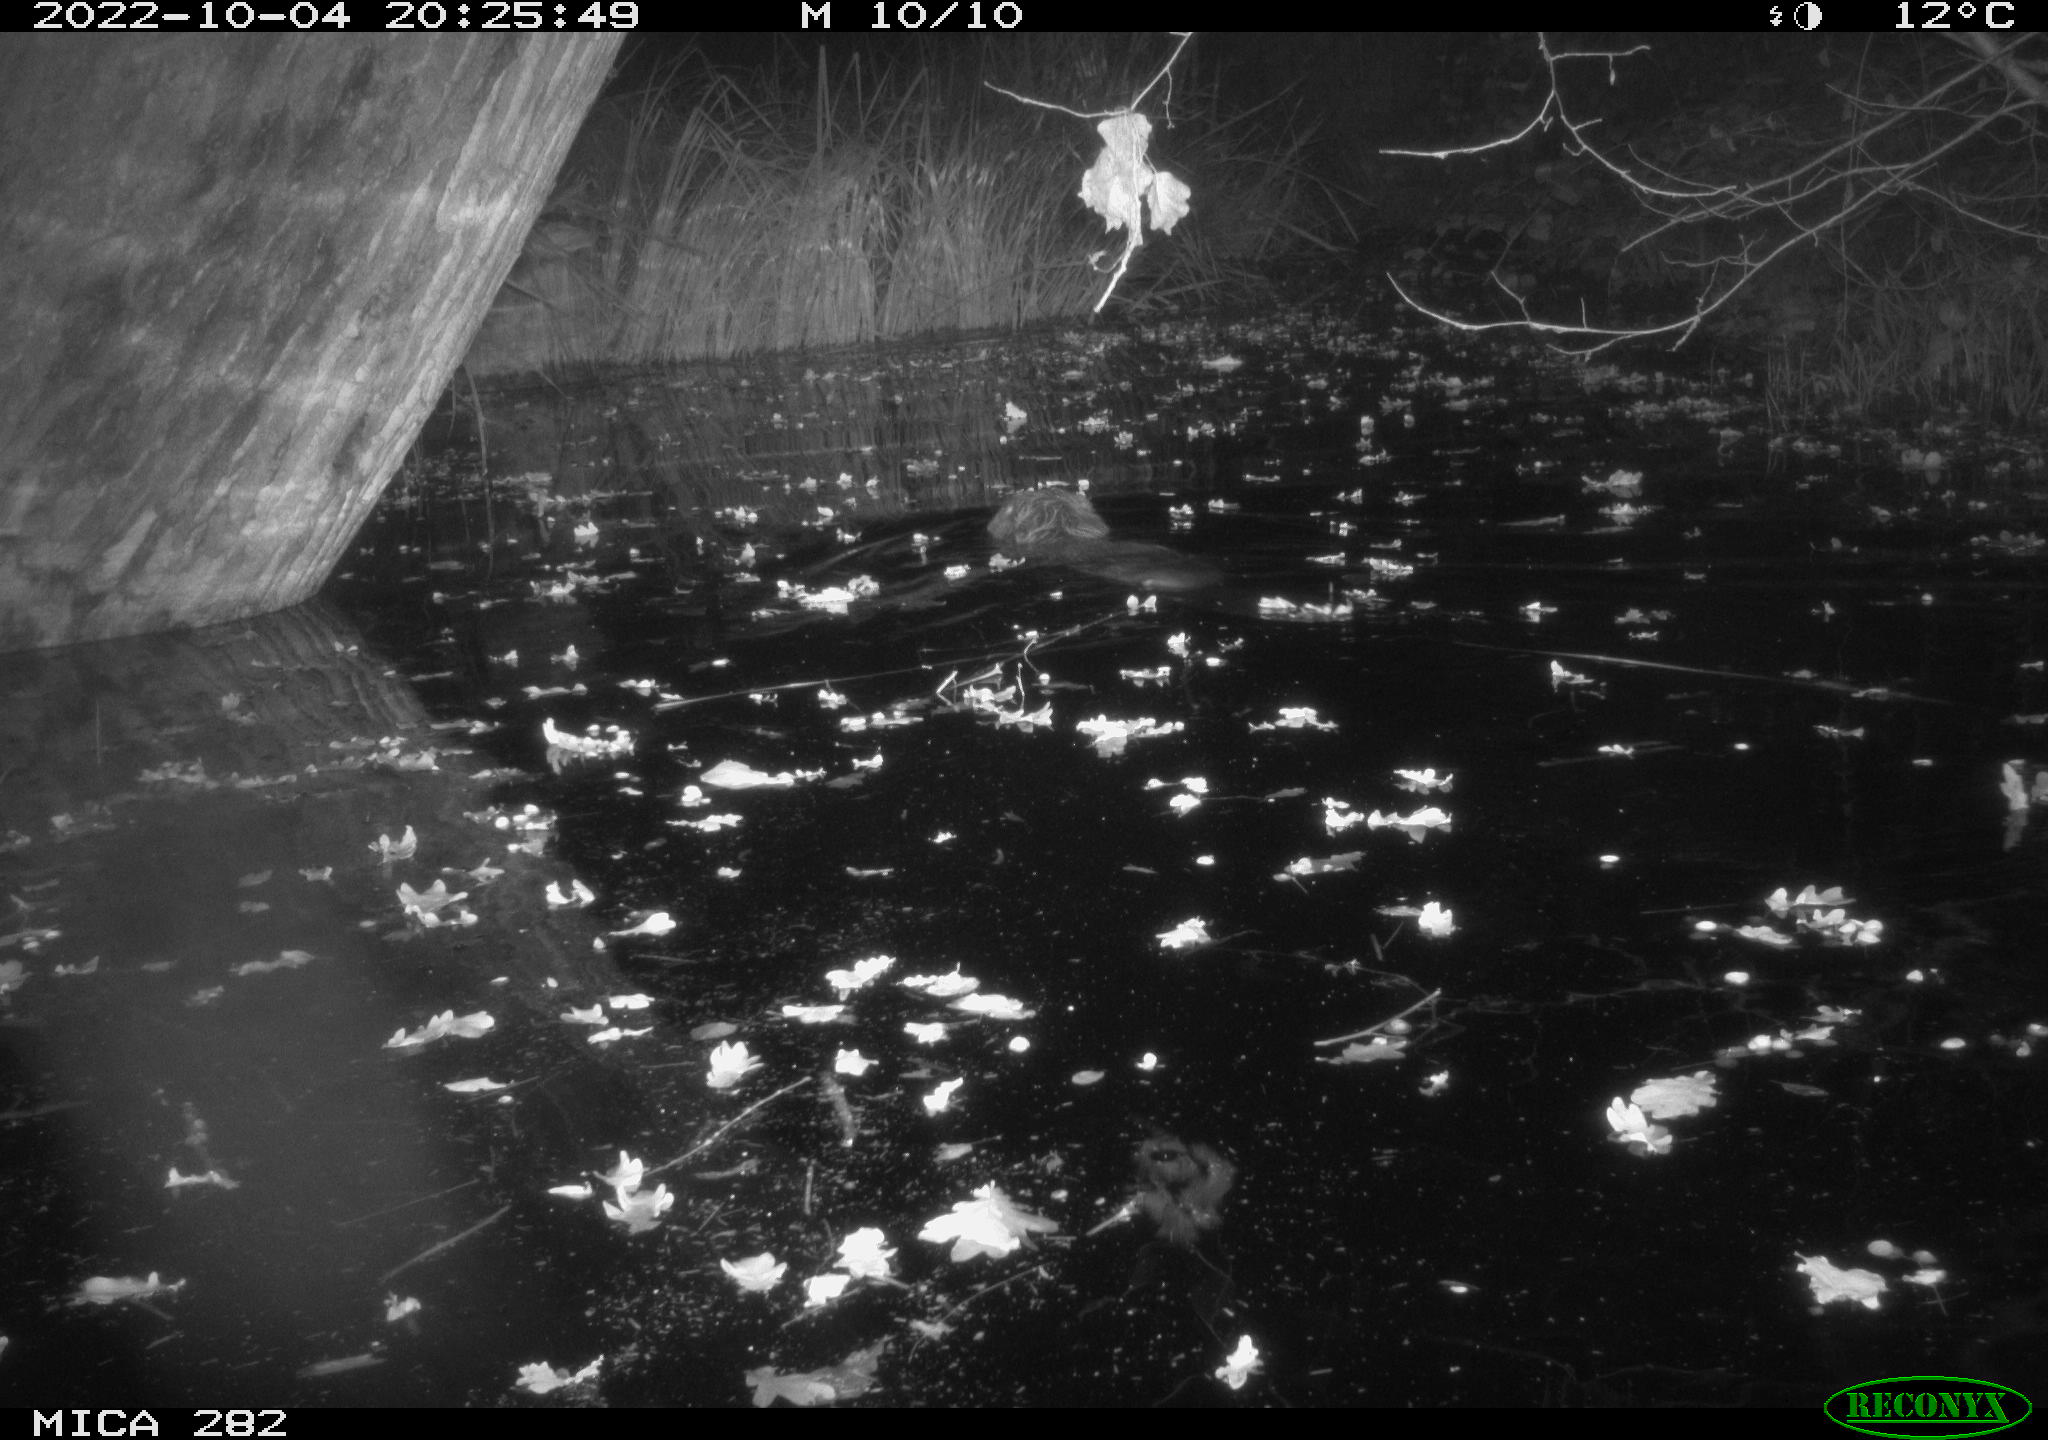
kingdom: Animalia
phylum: Chordata
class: Mammalia
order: Rodentia
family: Castoridae
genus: Castor
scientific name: Castor fiber
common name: Eurasian beaver
